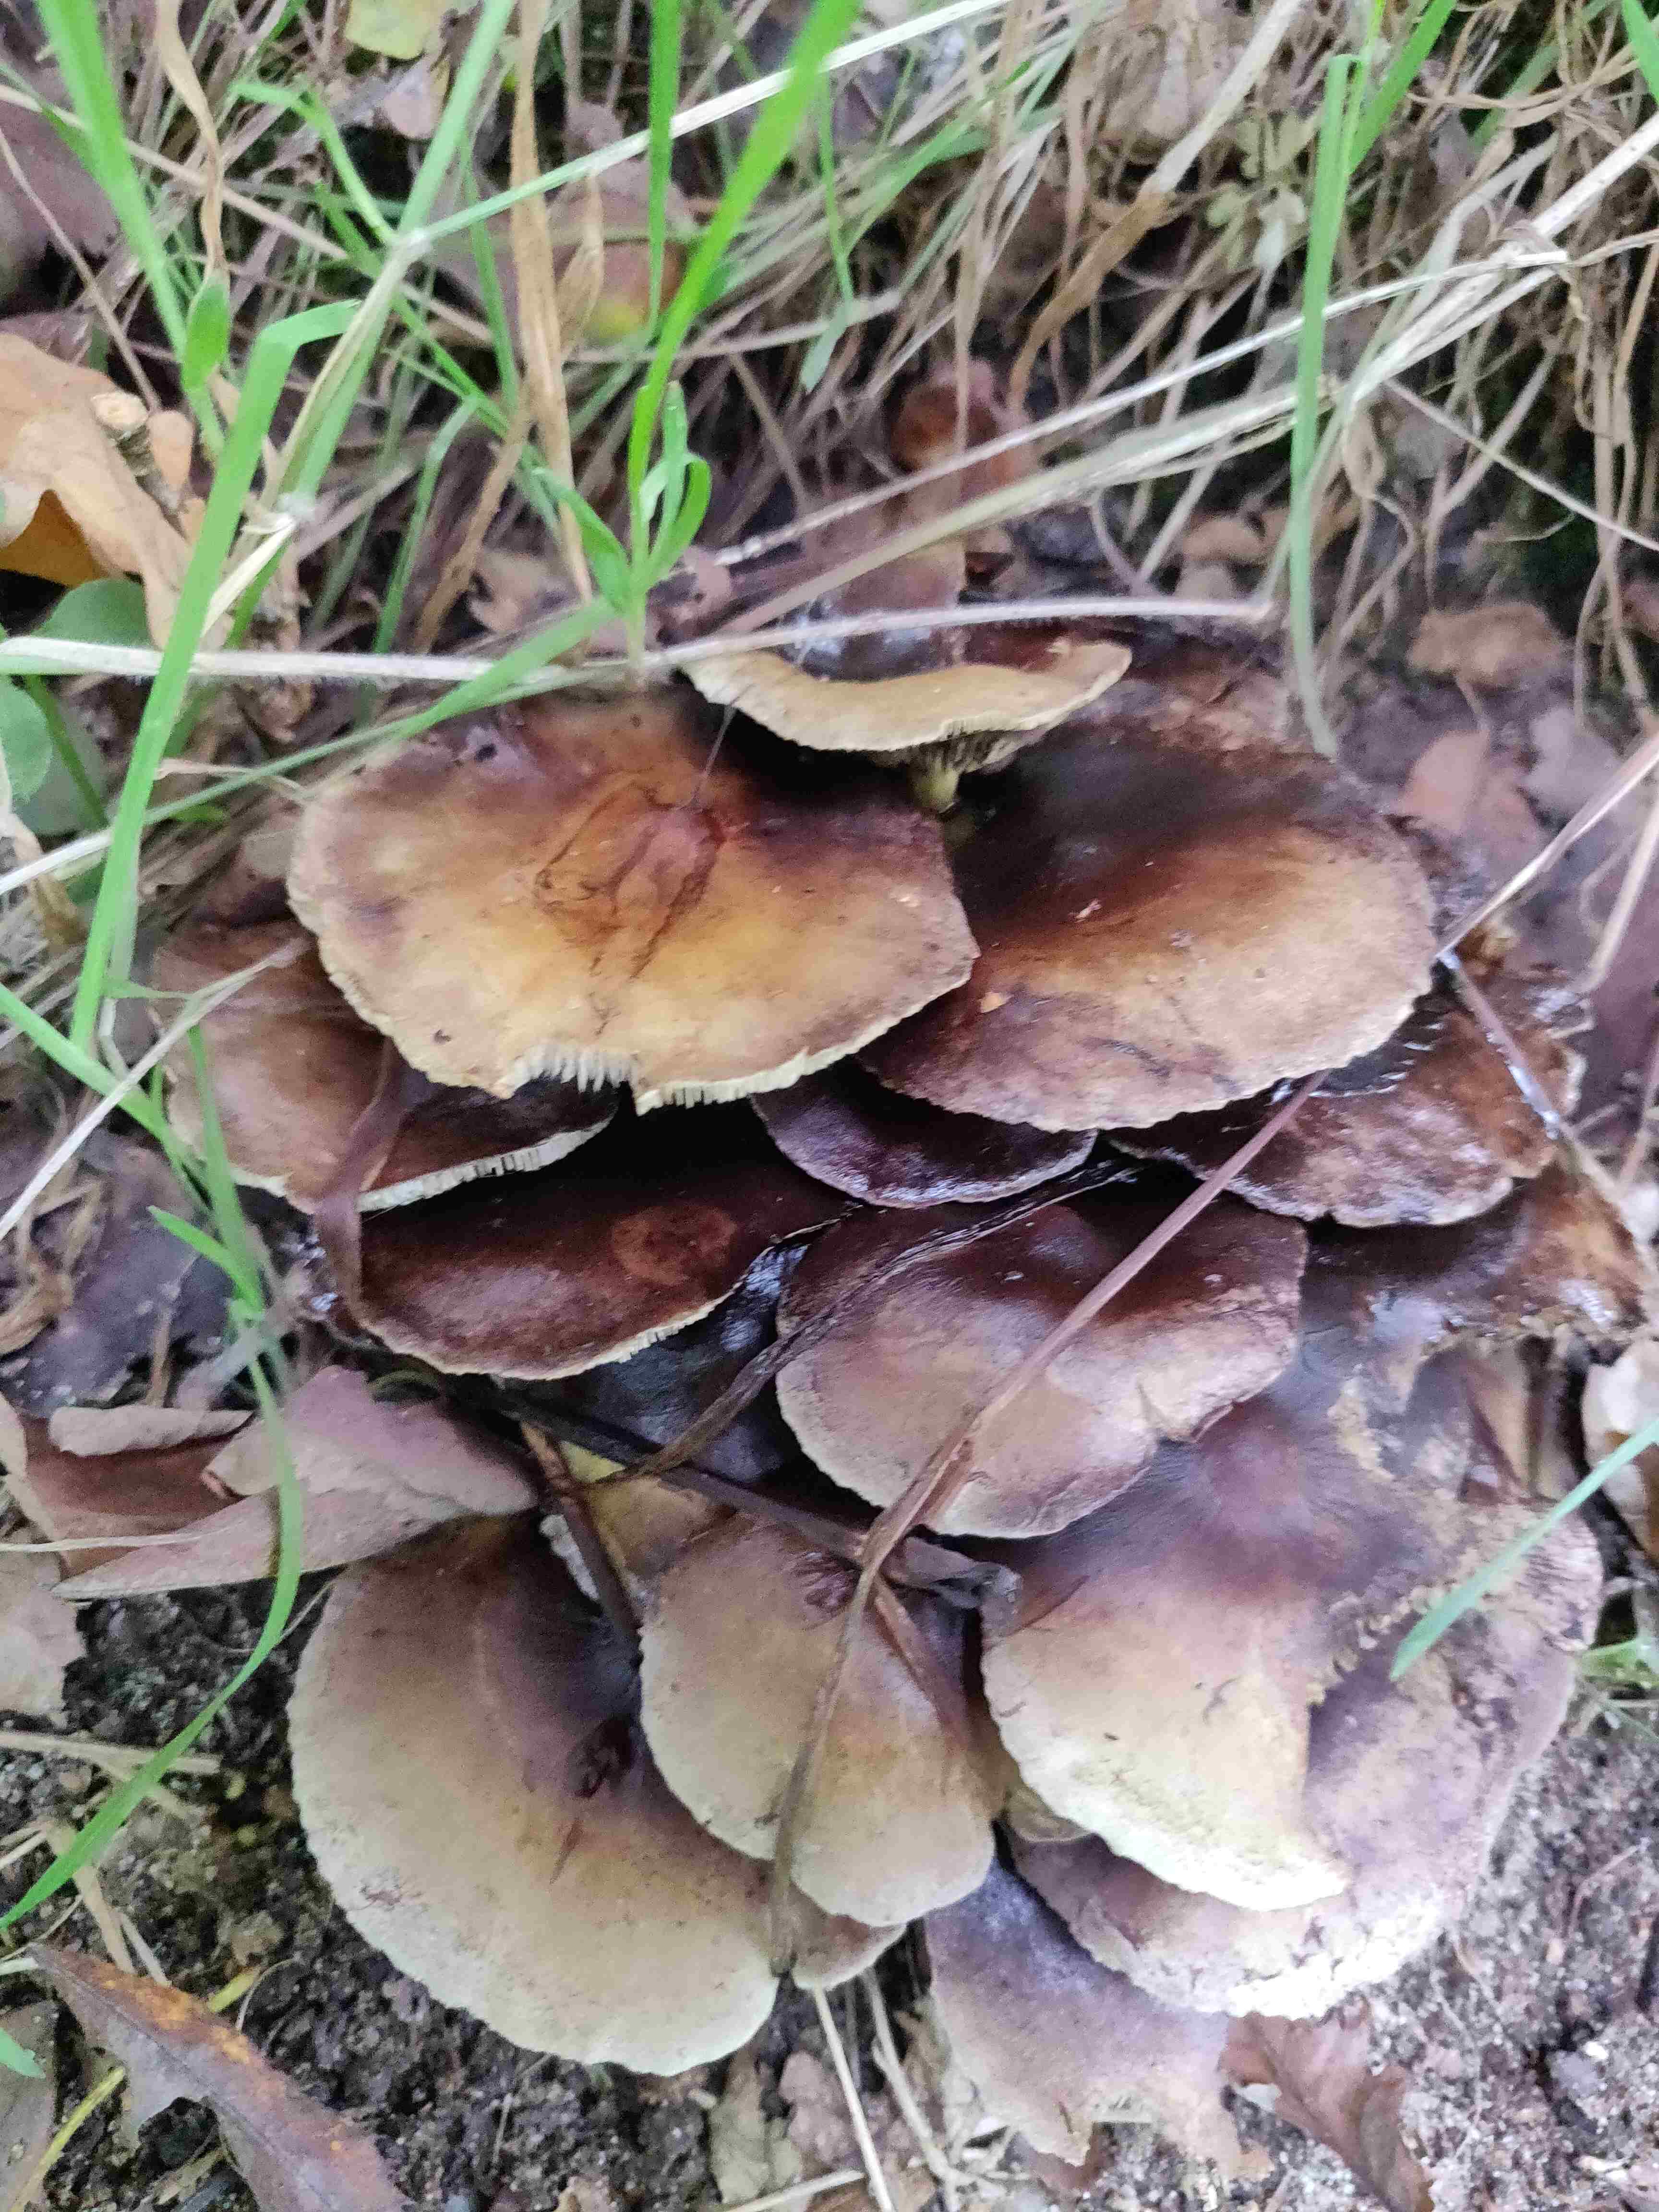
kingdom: Fungi
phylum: Basidiomycota
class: Agaricomycetes
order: Agaricales
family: Strophariaceae
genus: Hypholoma
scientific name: Hypholoma fasciculare
